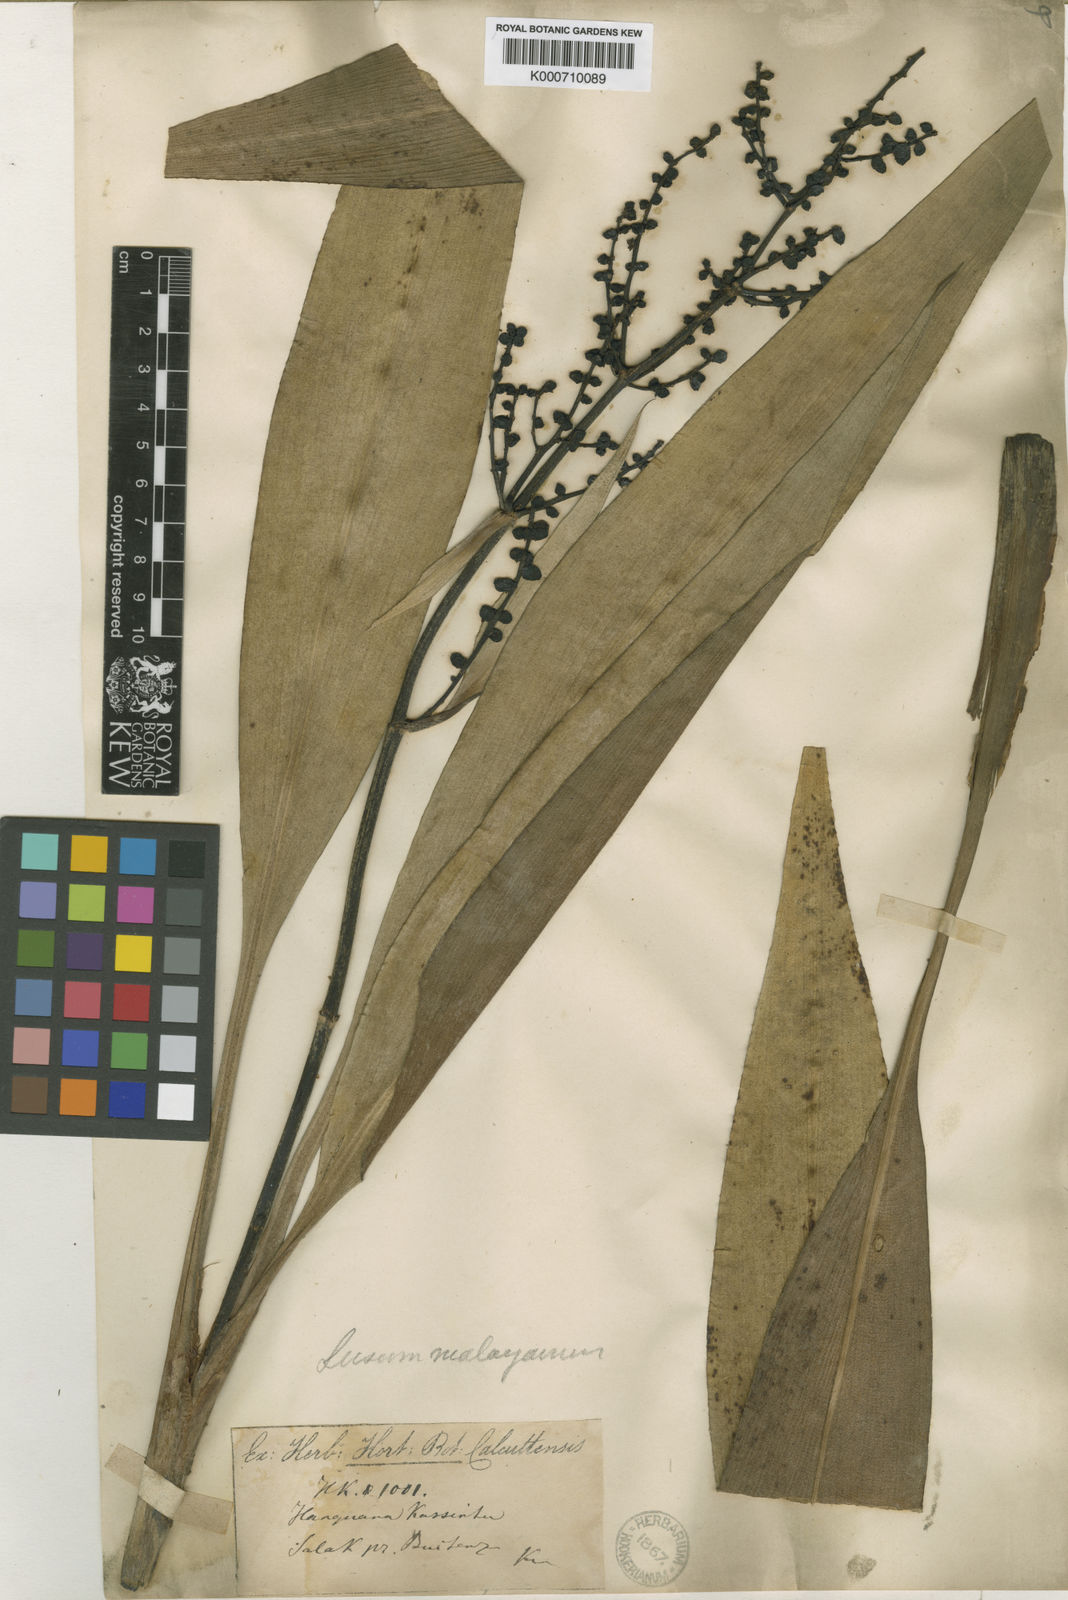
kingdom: Plantae
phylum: Tracheophyta
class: Liliopsida
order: Commelinales
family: Hanguanaceae
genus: Hanguana
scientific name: Hanguana malayana
